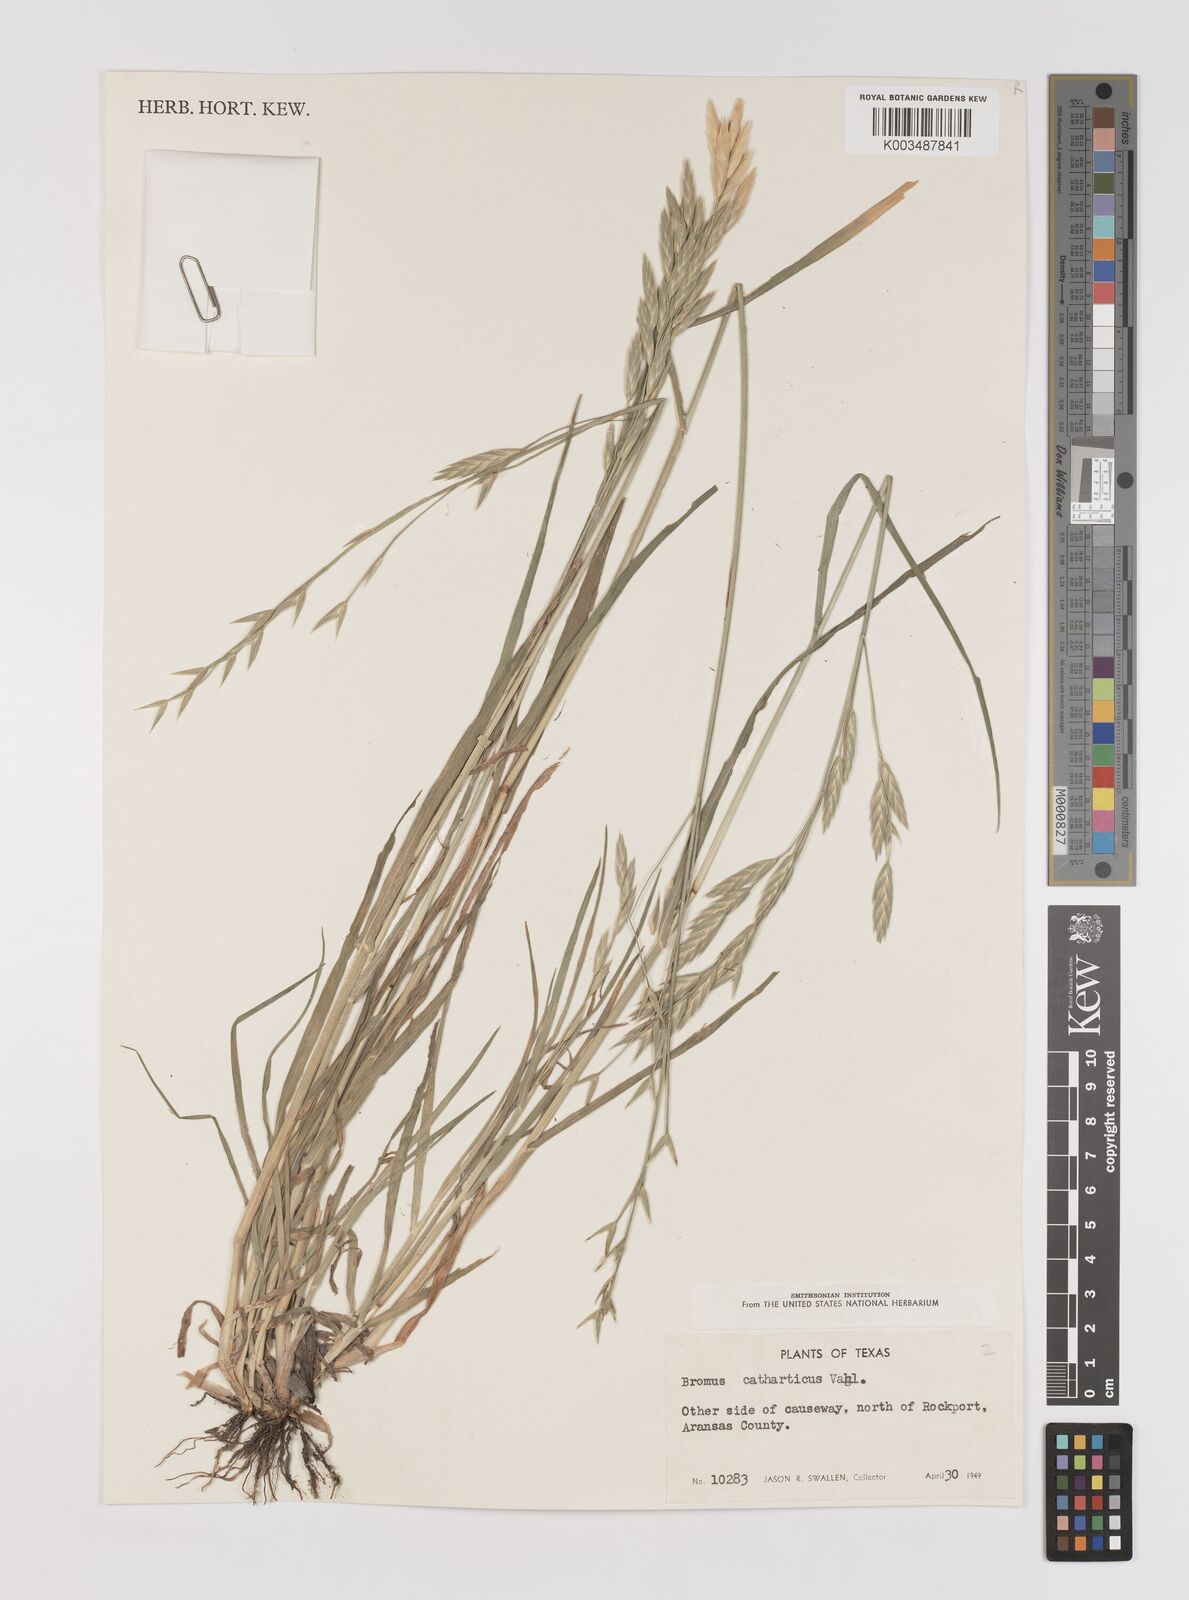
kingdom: Plantae
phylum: Tracheophyta
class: Liliopsida
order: Poales
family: Poaceae
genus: Bromus
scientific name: Bromus catharticus
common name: Rescuegrass
